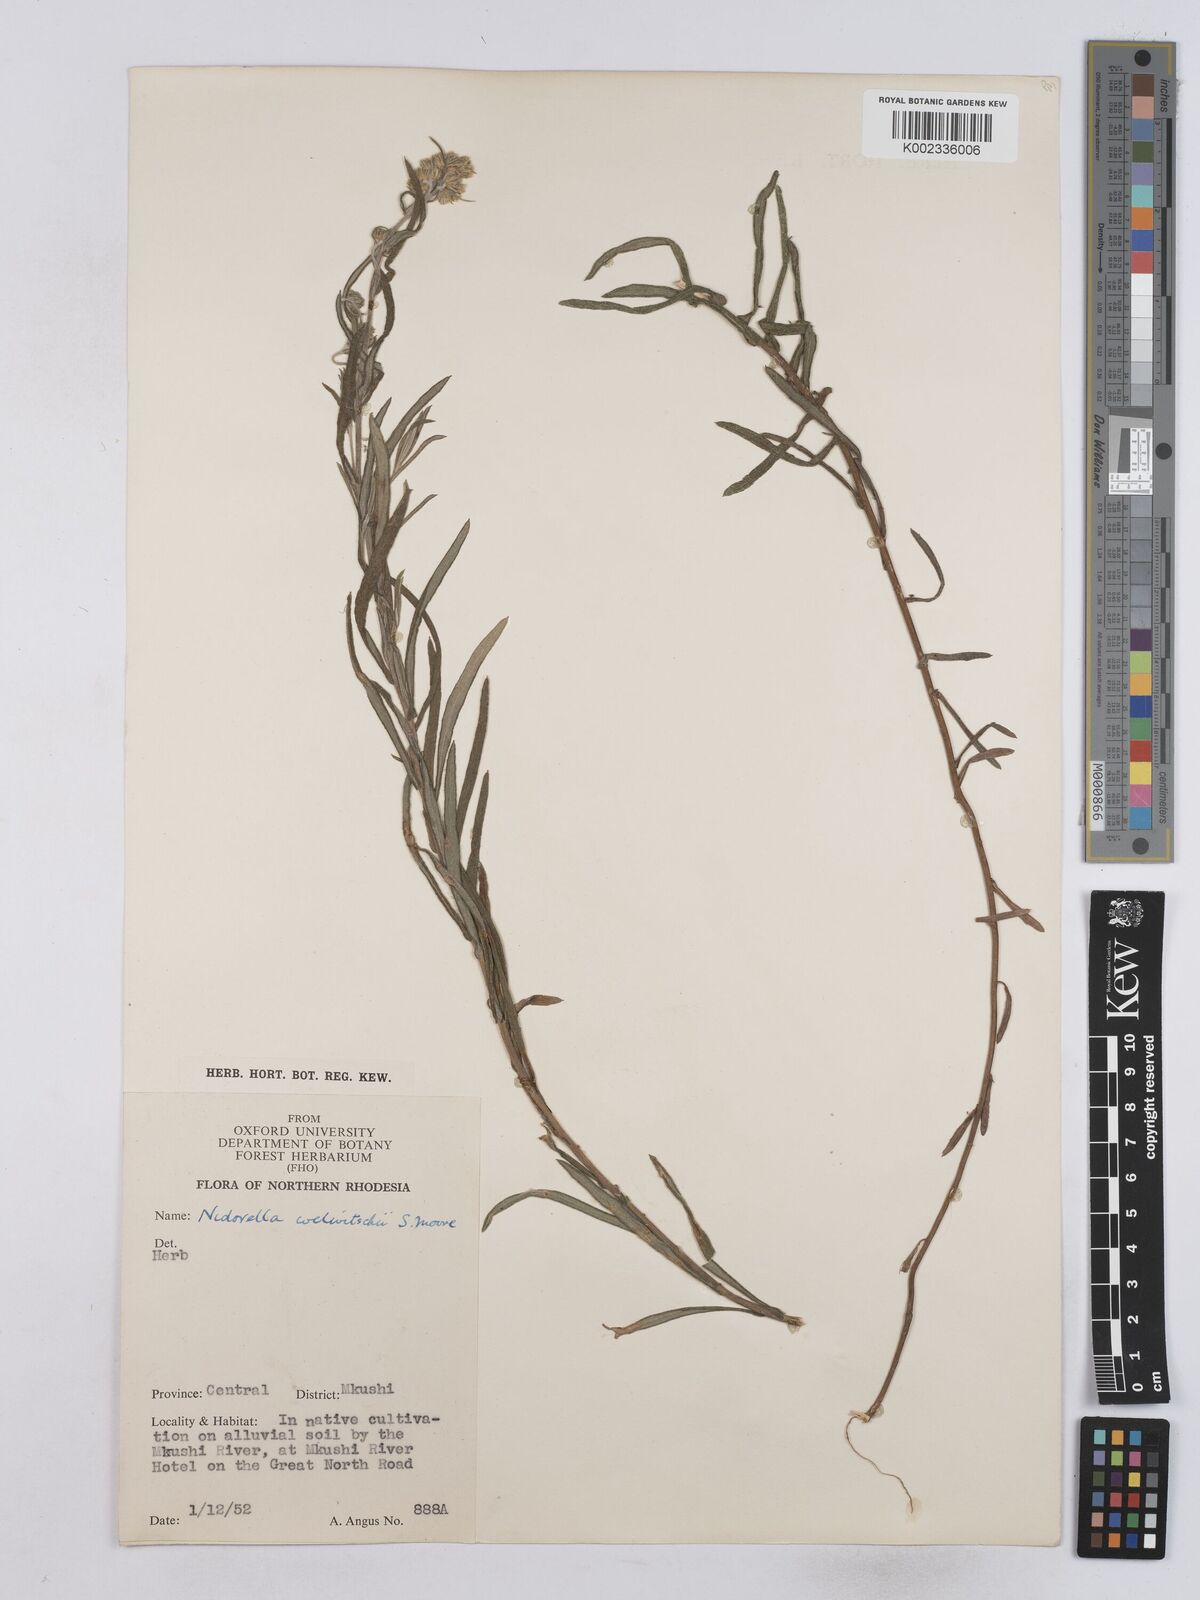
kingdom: Plantae
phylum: Tracheophyta
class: Magnoliopsida
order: Asterales
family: Asteraceae
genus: Nidorella
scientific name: Nidorella welwitschii
